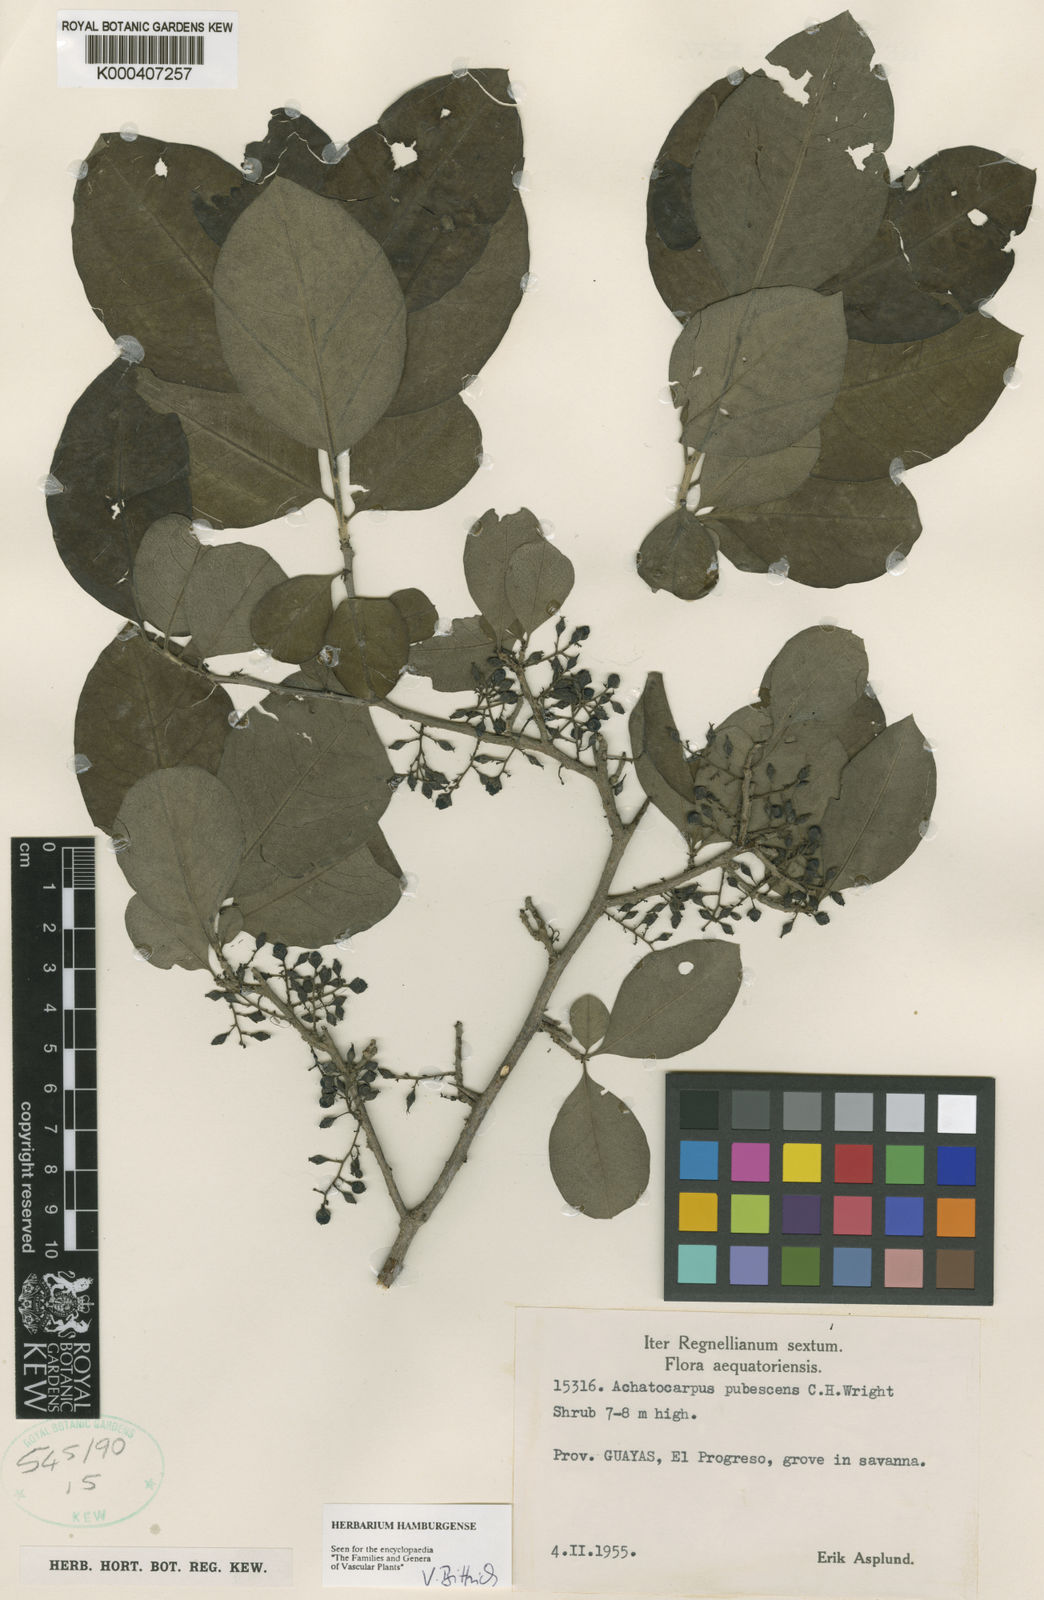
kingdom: Plantae
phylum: Tracheophyta
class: Magnoliopsida
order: Caryophyllales
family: Achatocarpaceae
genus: Achatocarpus
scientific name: Achatocarpus pubescens
